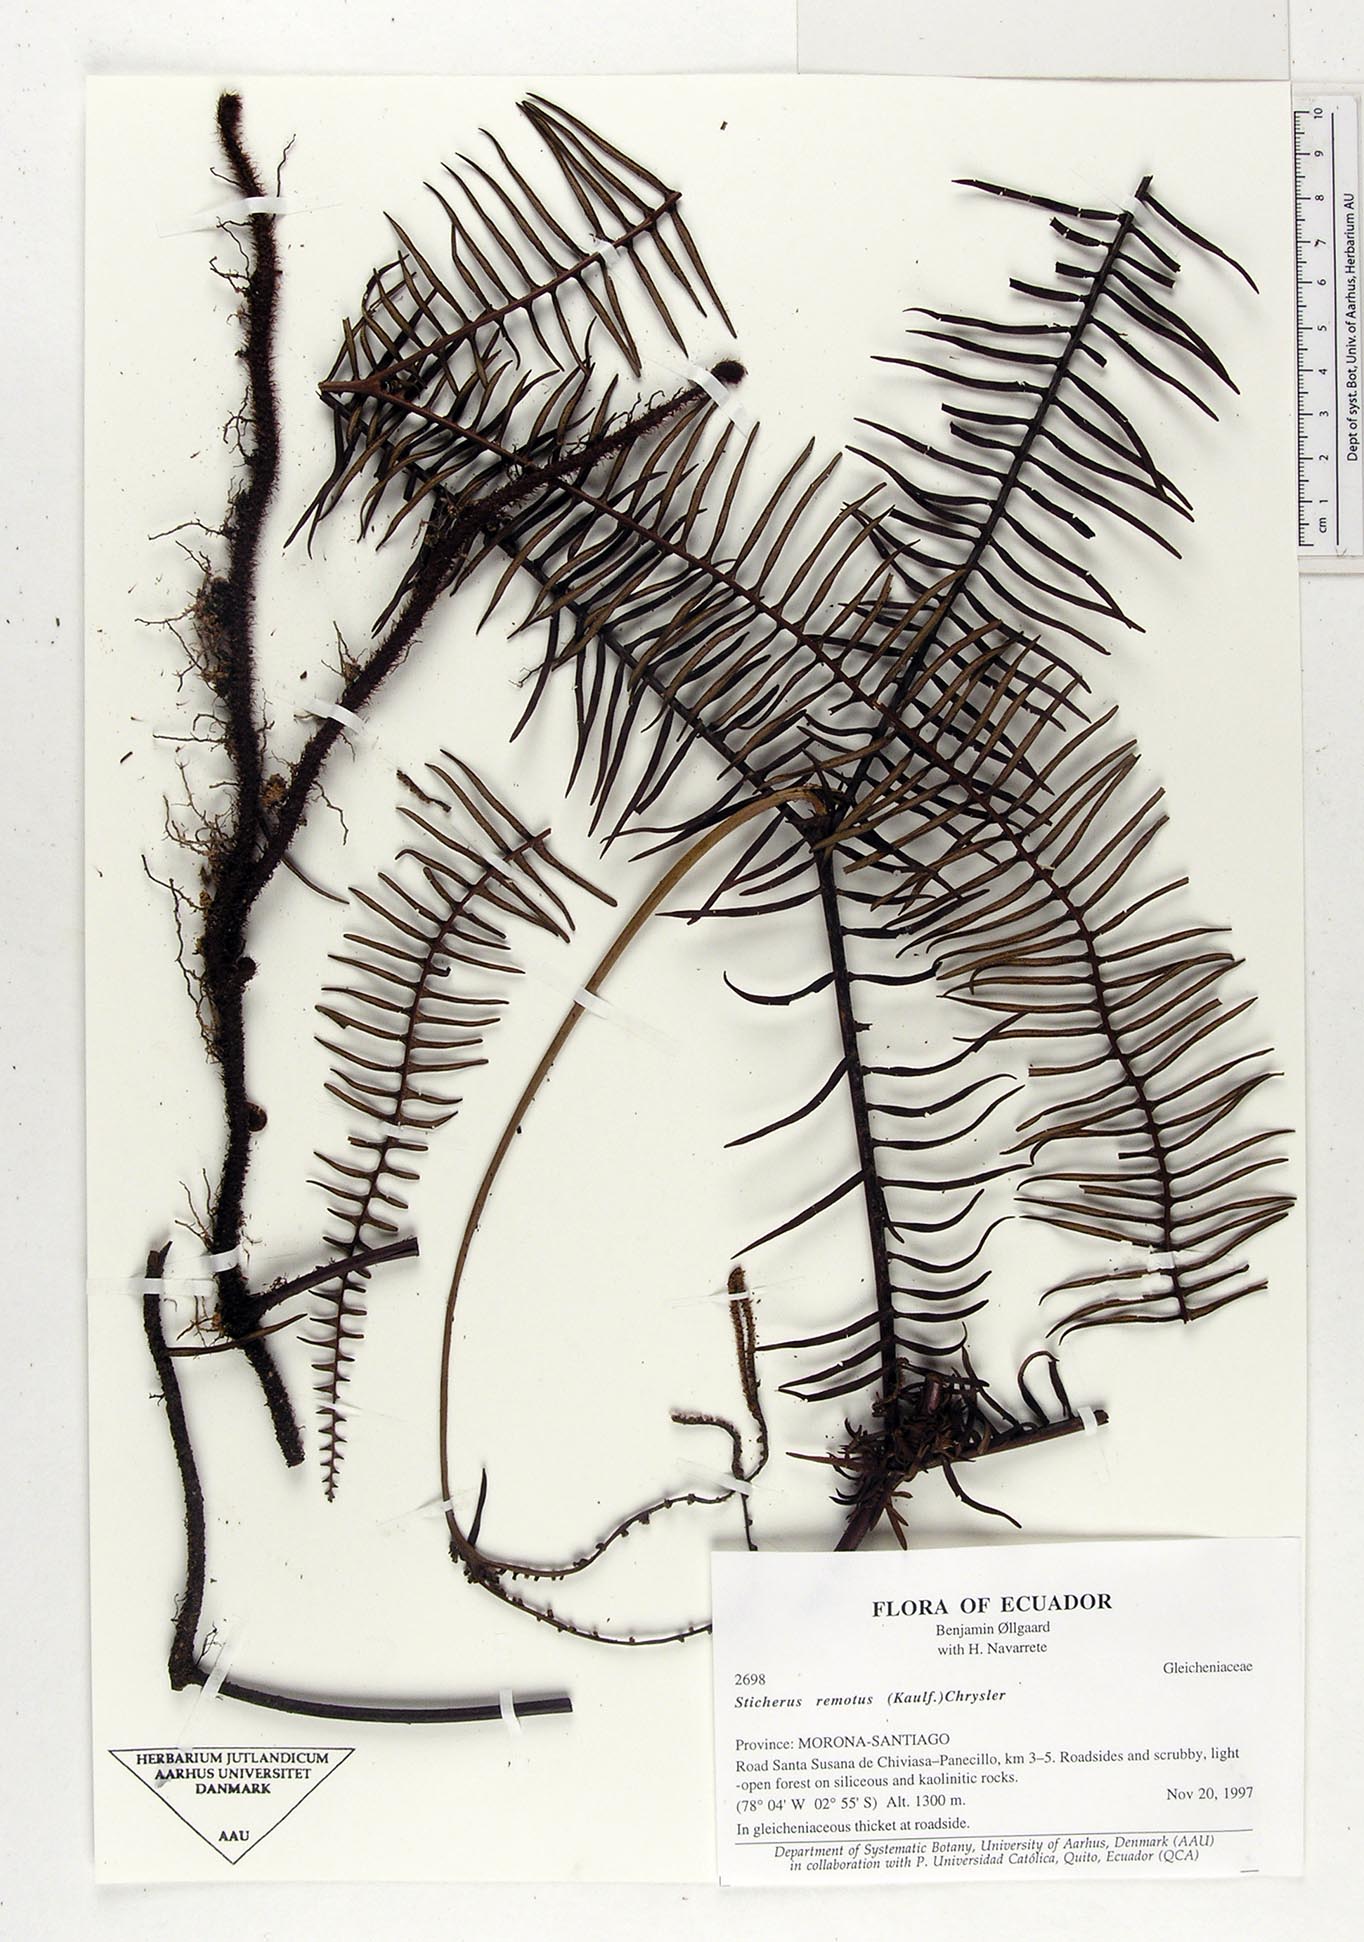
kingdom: Plantae
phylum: Tracheophyta
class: Polypodiopsida
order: Gleicheniales
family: Gleicheniaceae
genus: Sticherus
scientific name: Sticherus remotus
